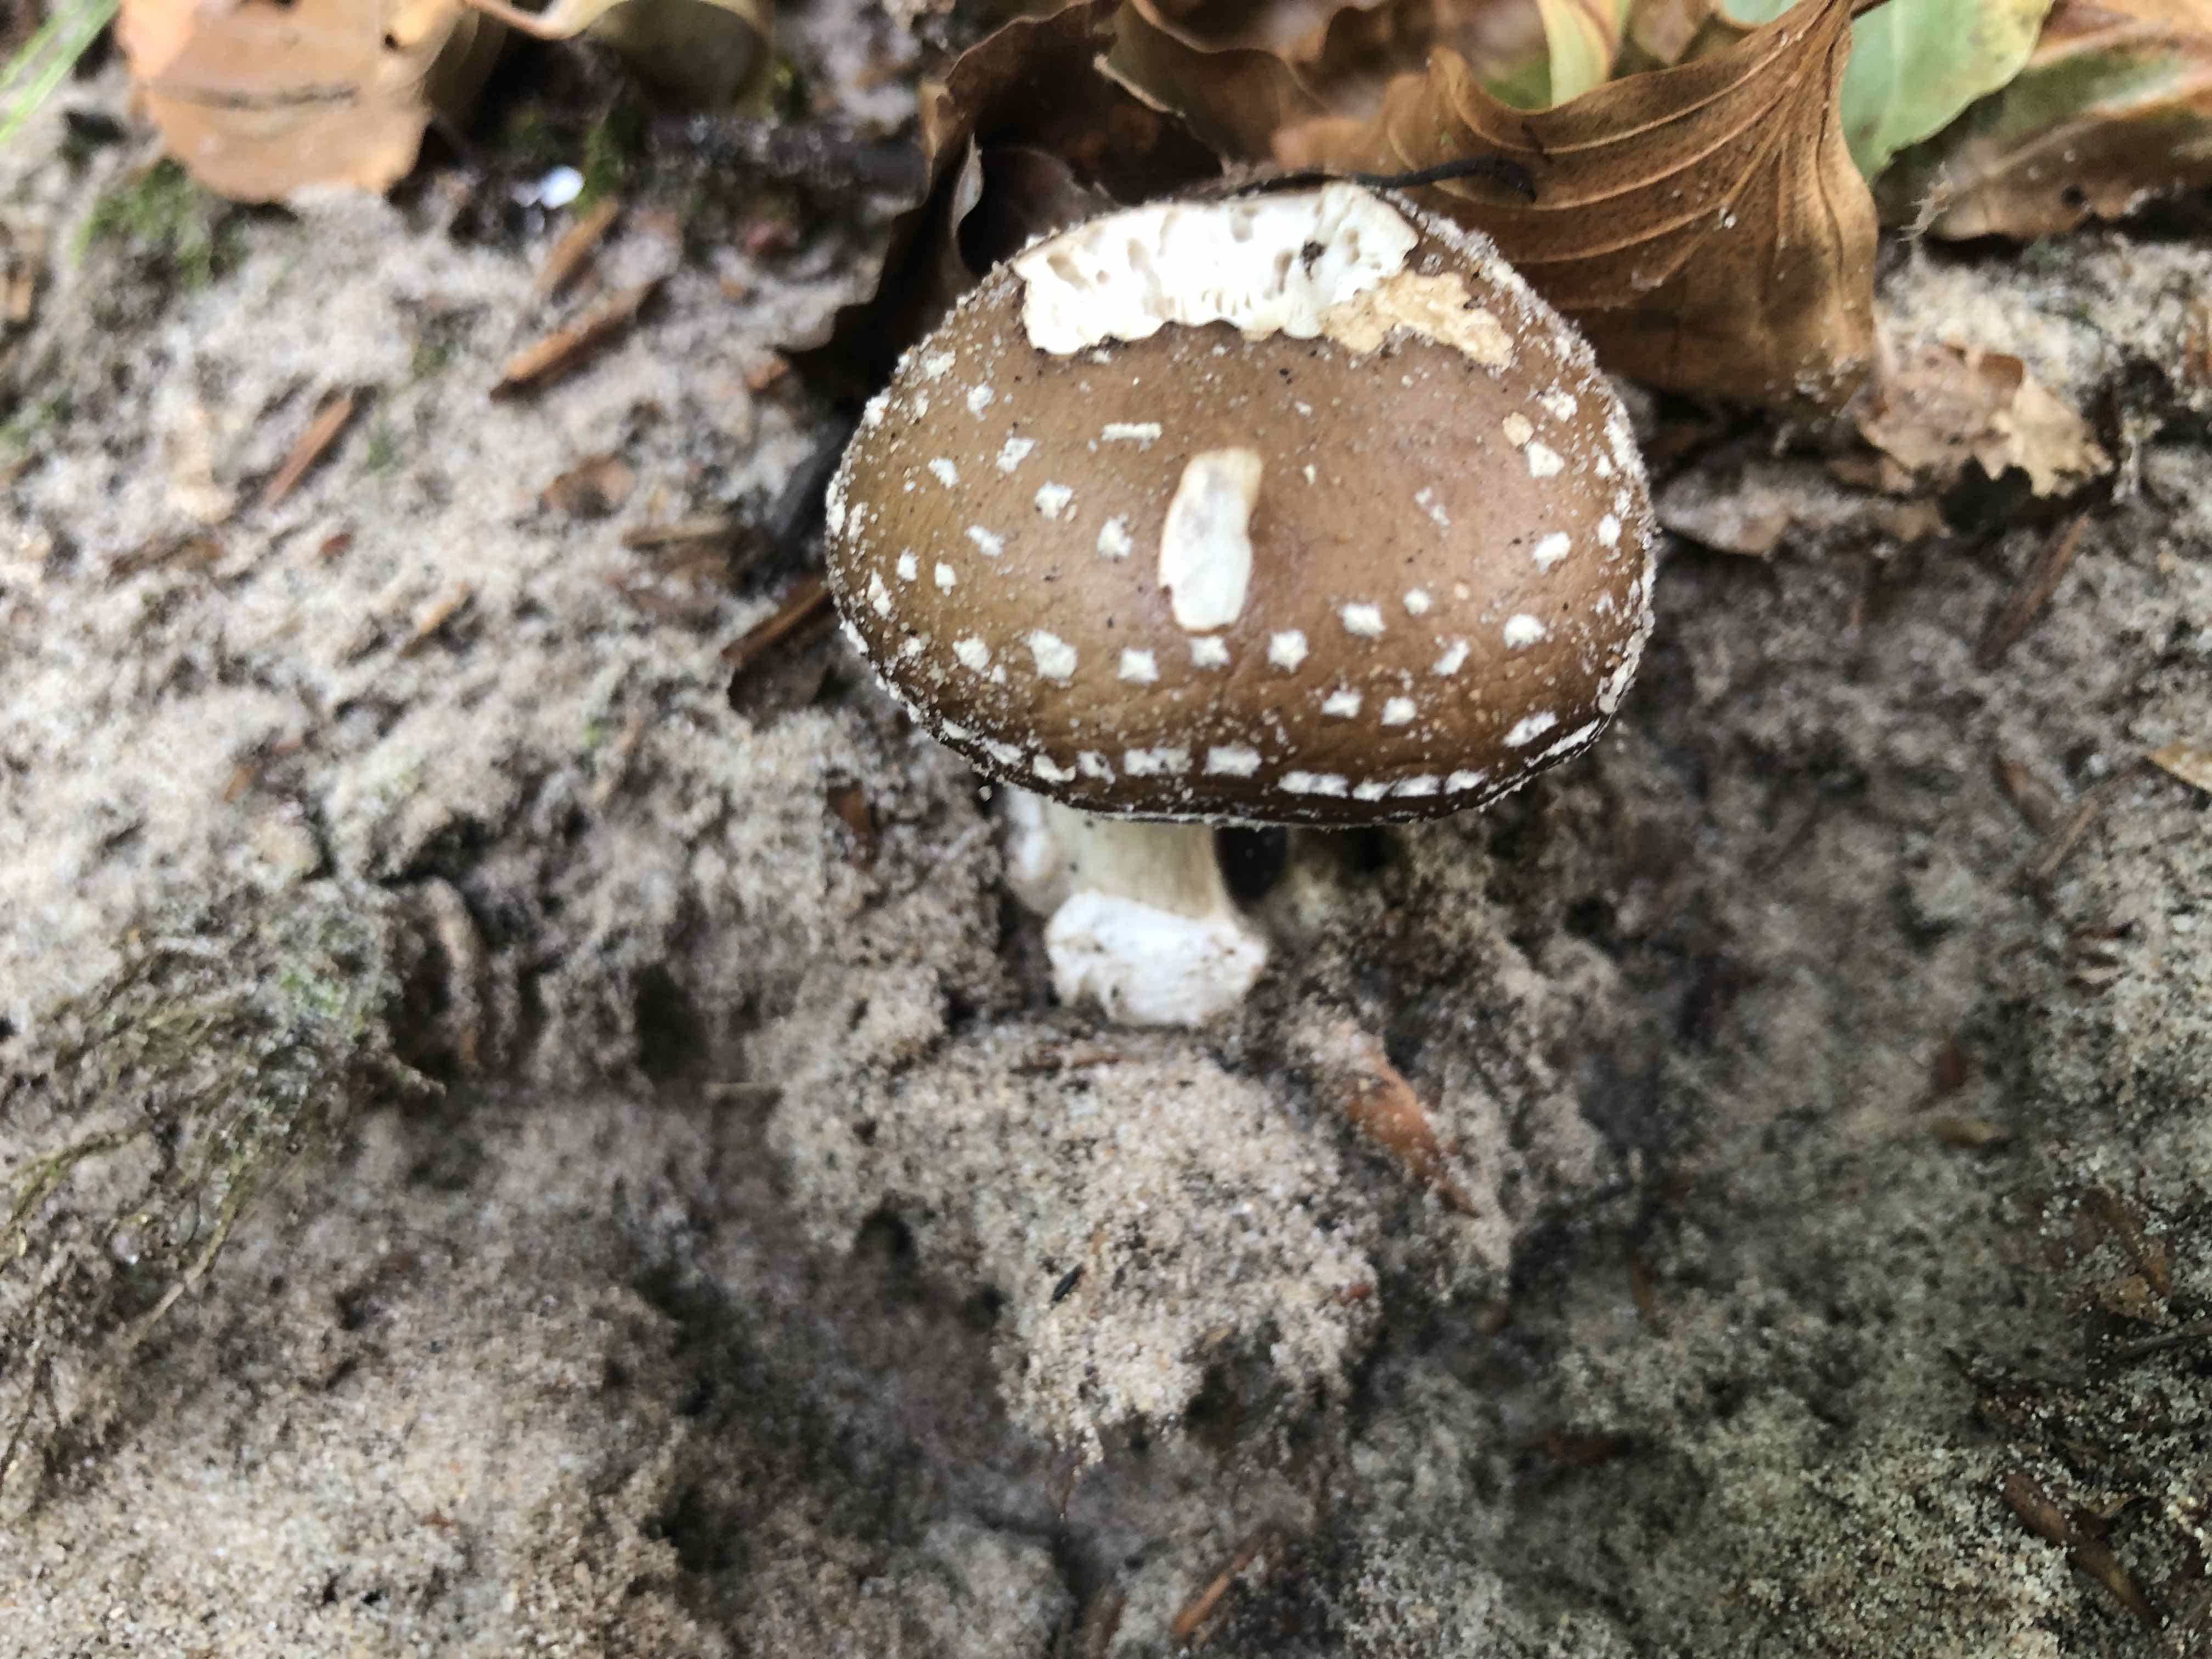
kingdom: Fungi
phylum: Basidiomycota
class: Agaricomycetes
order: Agaricales
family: Amanitaceae
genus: Amanita
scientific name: Amanita pantherina
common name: panter-fluesvamp
